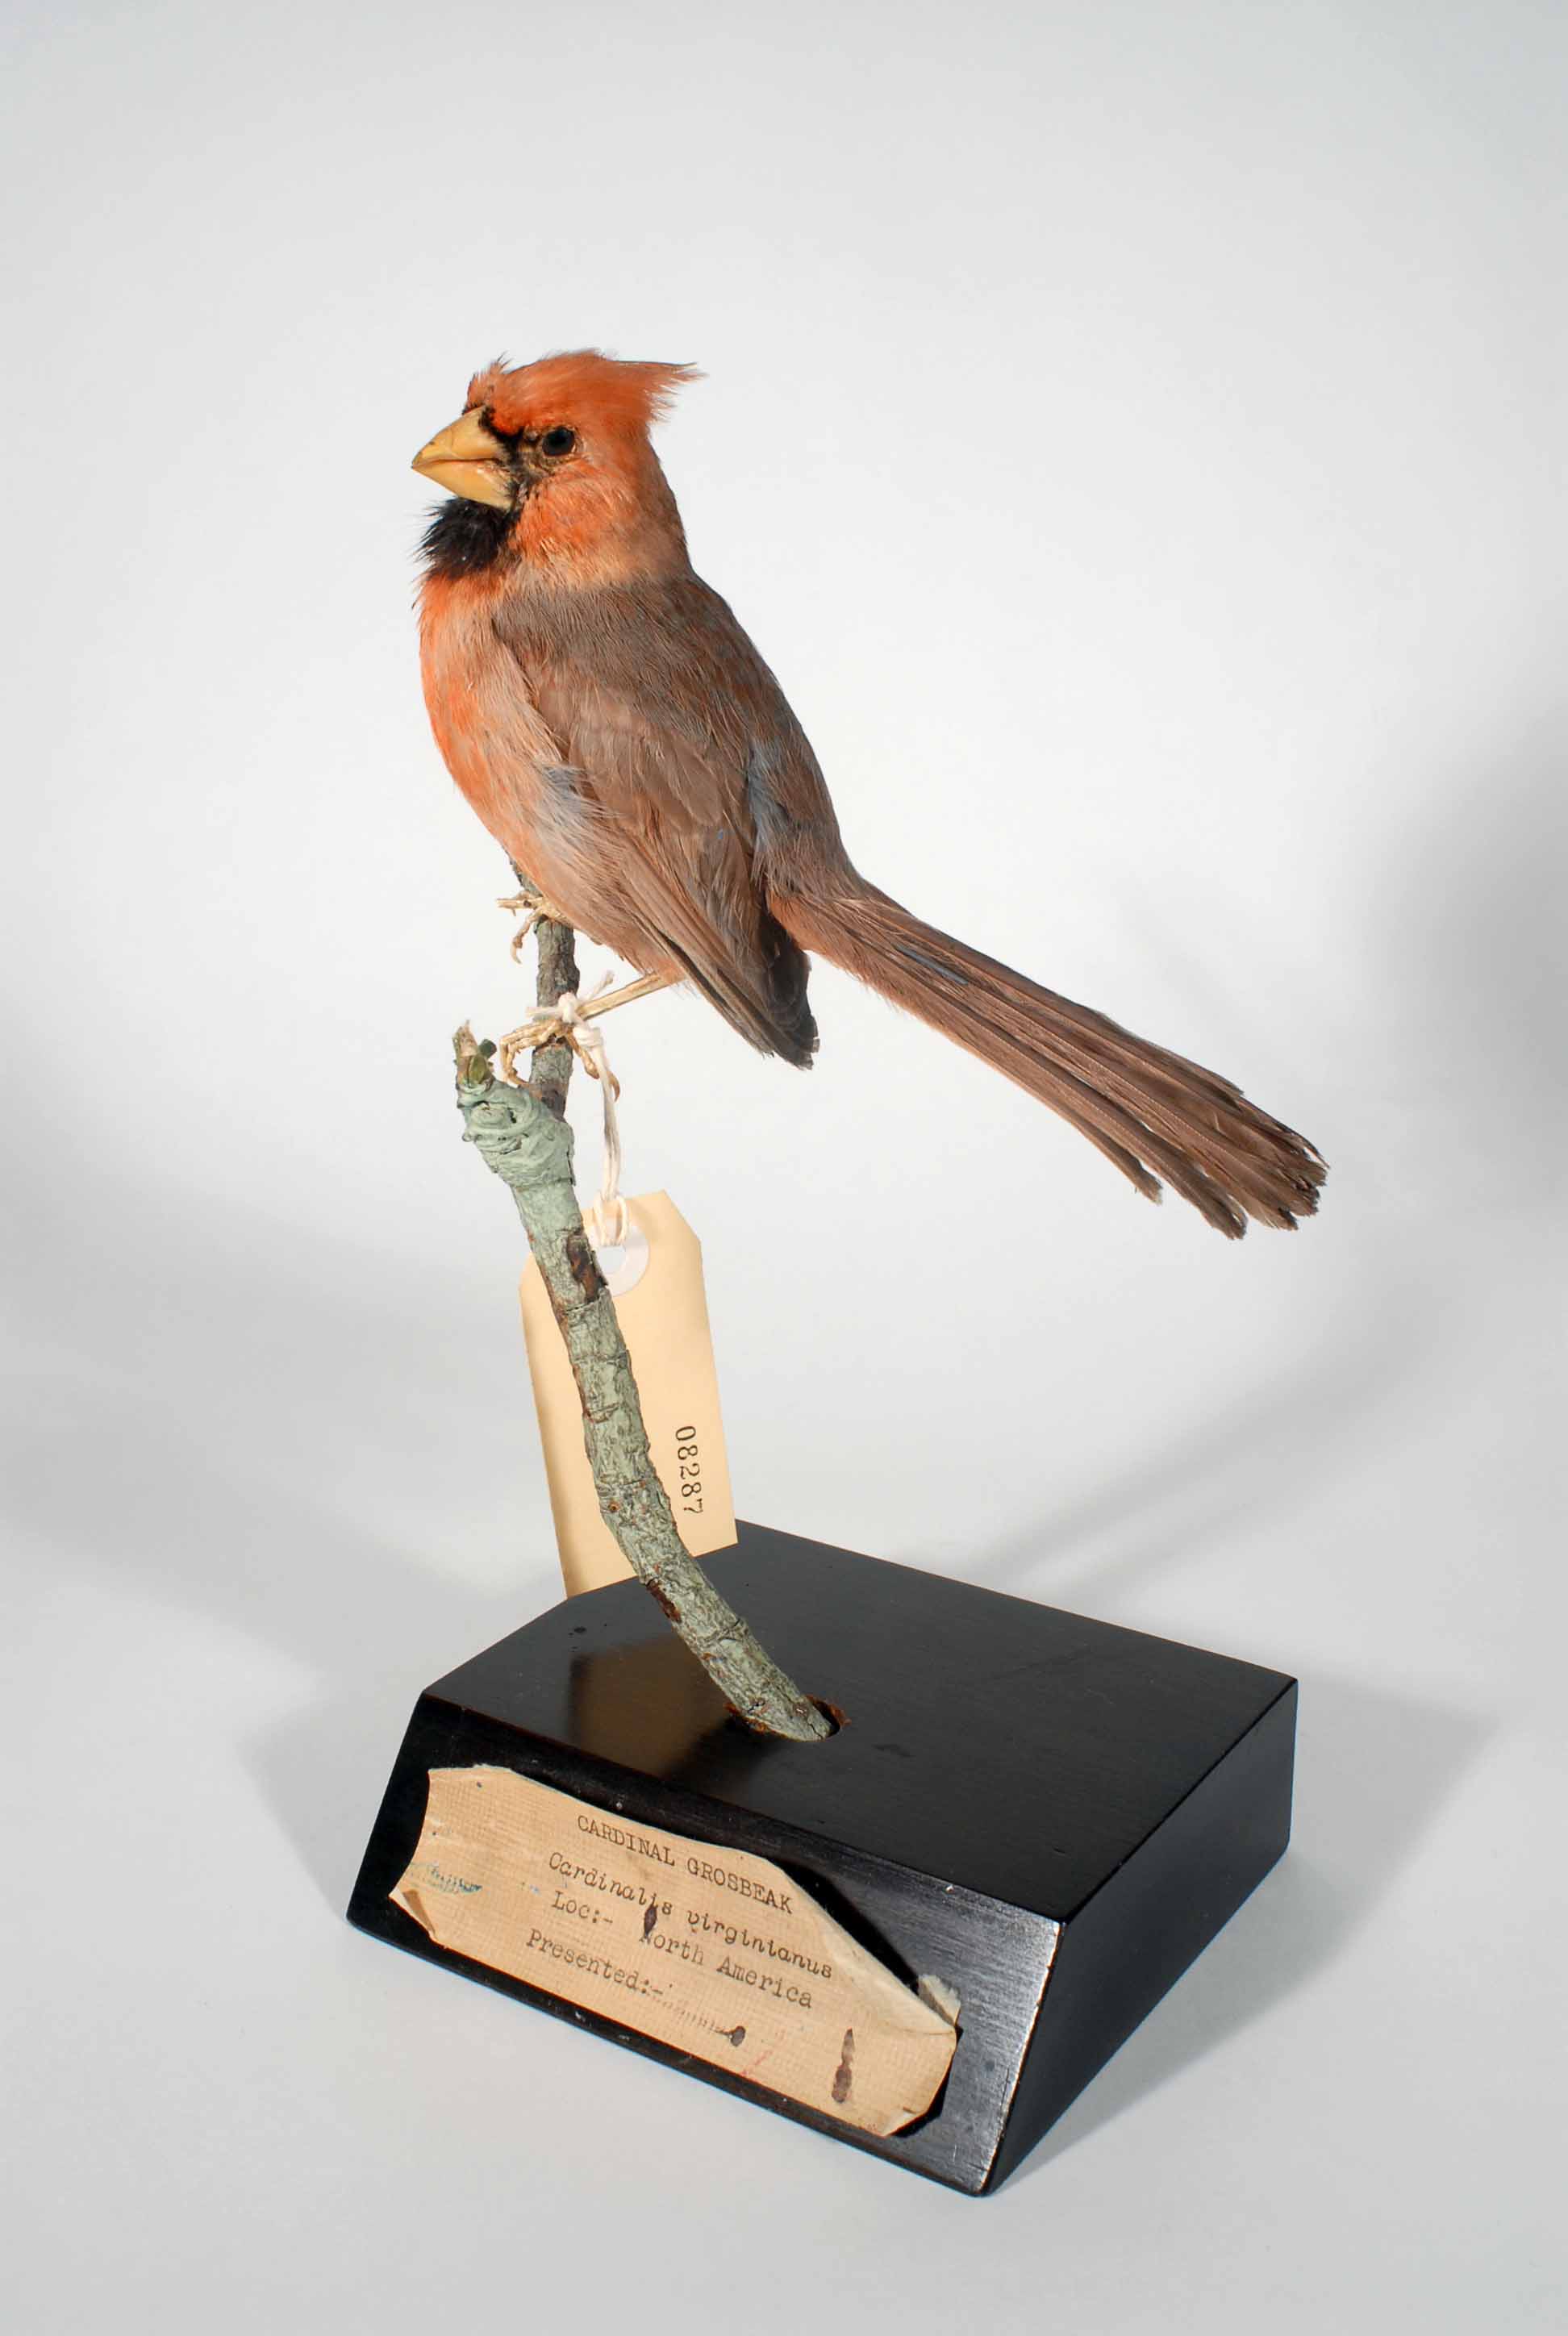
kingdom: Animalia
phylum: Chordata
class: Aves
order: Passeriformes
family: Cardinalidae
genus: Cardinalis
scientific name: Cardinalis cardinalis
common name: Northern cardinal
